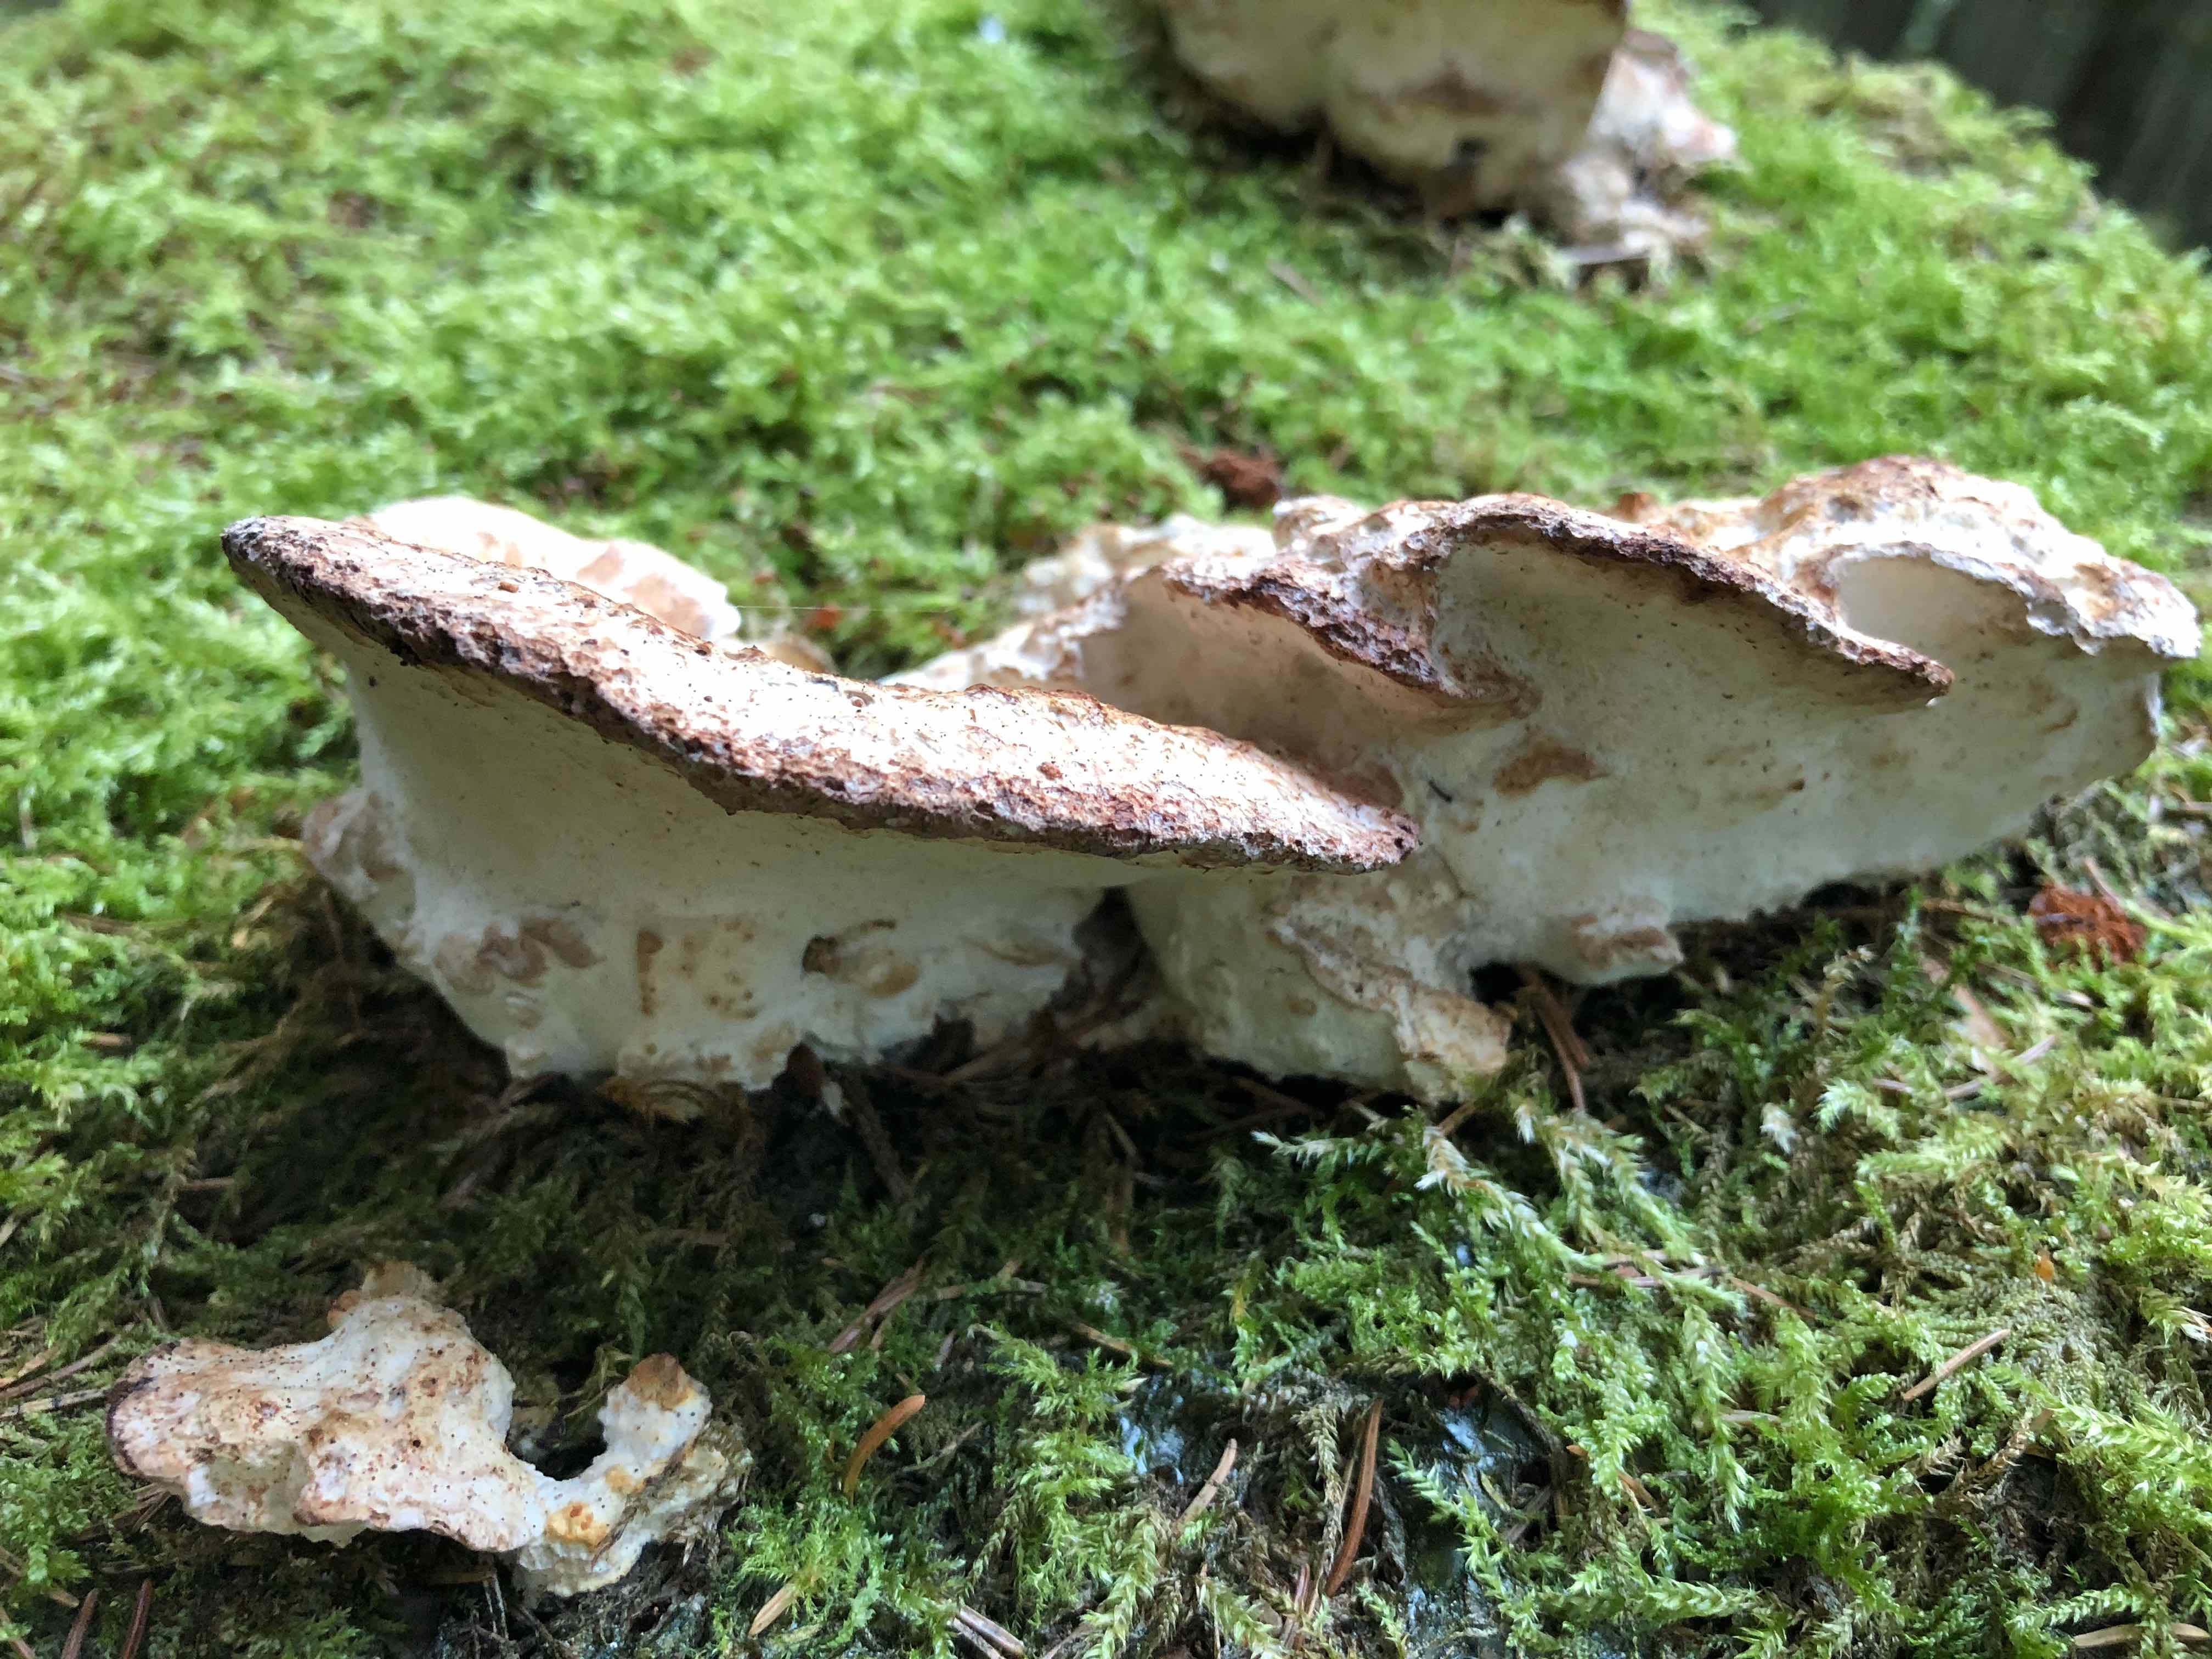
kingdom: Fungi
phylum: Basidiomycota
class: Agaricomycetes
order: Polyporales
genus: Calcipostia
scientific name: Calcipostia guttulata
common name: dråbe-kødporesvamp
